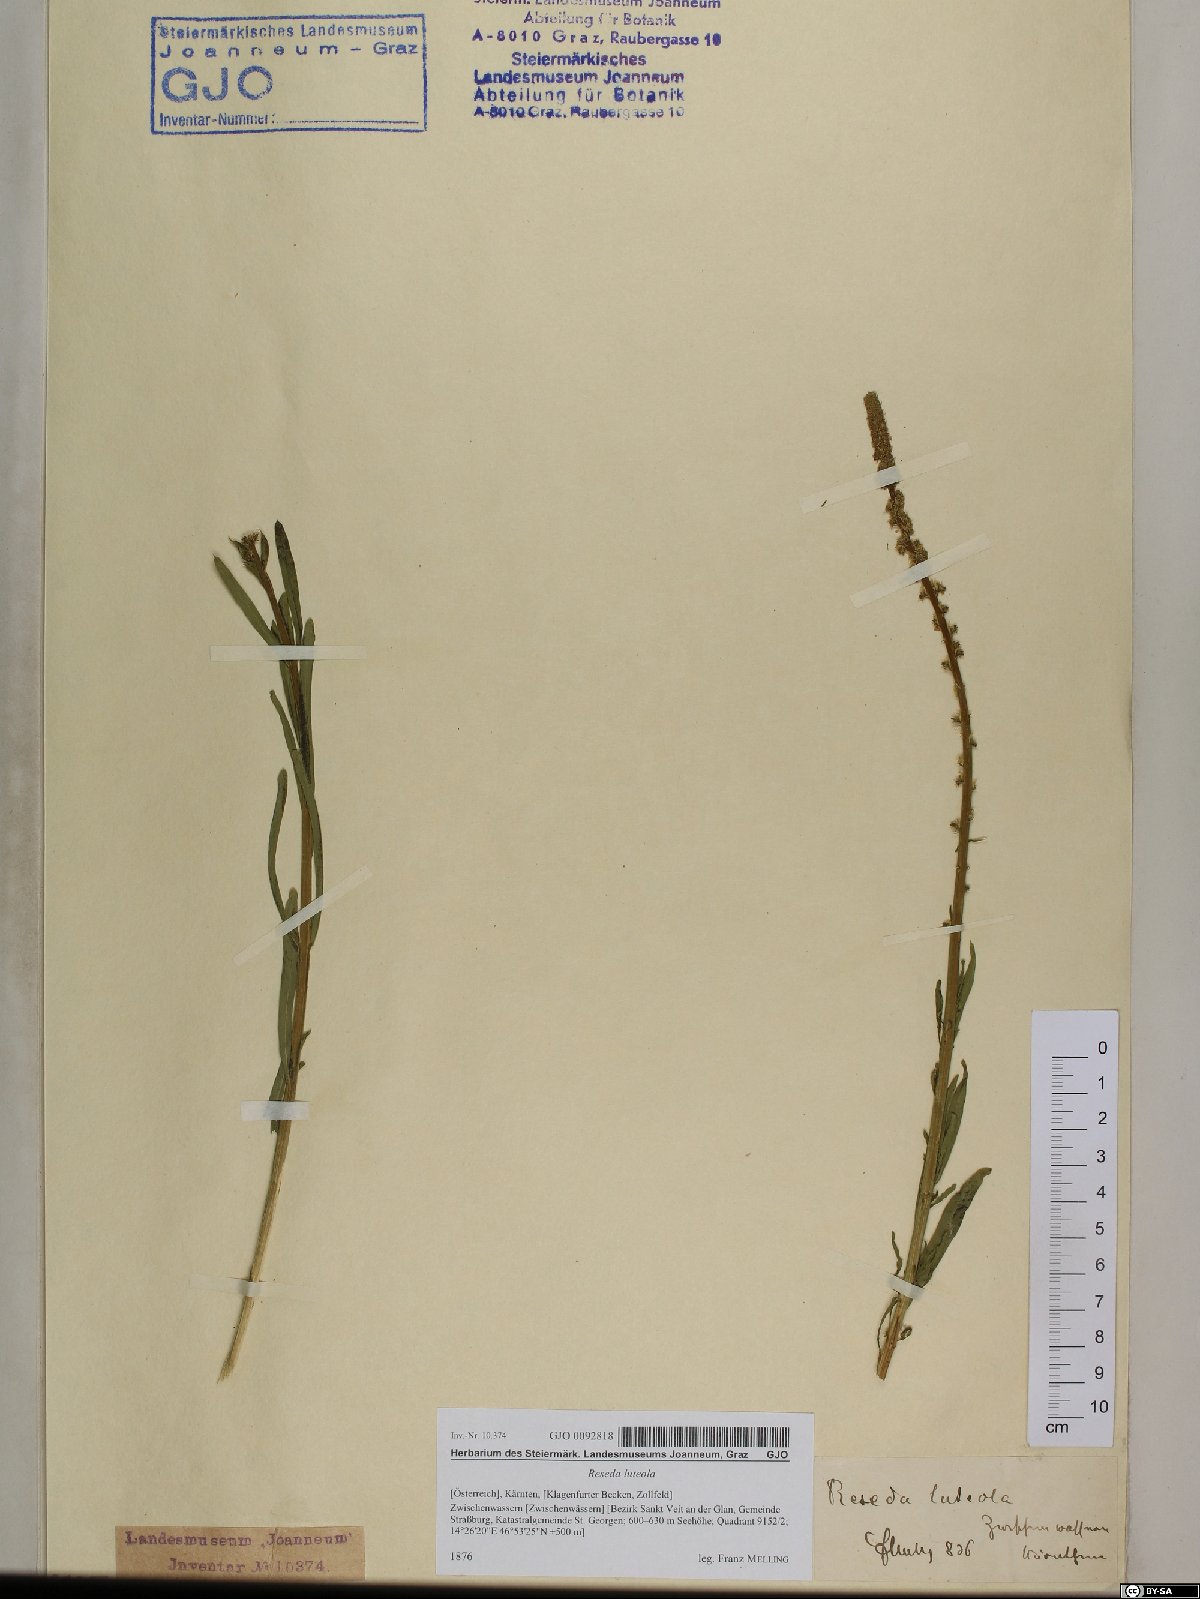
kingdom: Plantae
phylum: Tracheophyta
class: Magnoliopsida
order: Brassicales
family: Resedaceae
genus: Reseda
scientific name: Reseda luteola
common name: Weld
